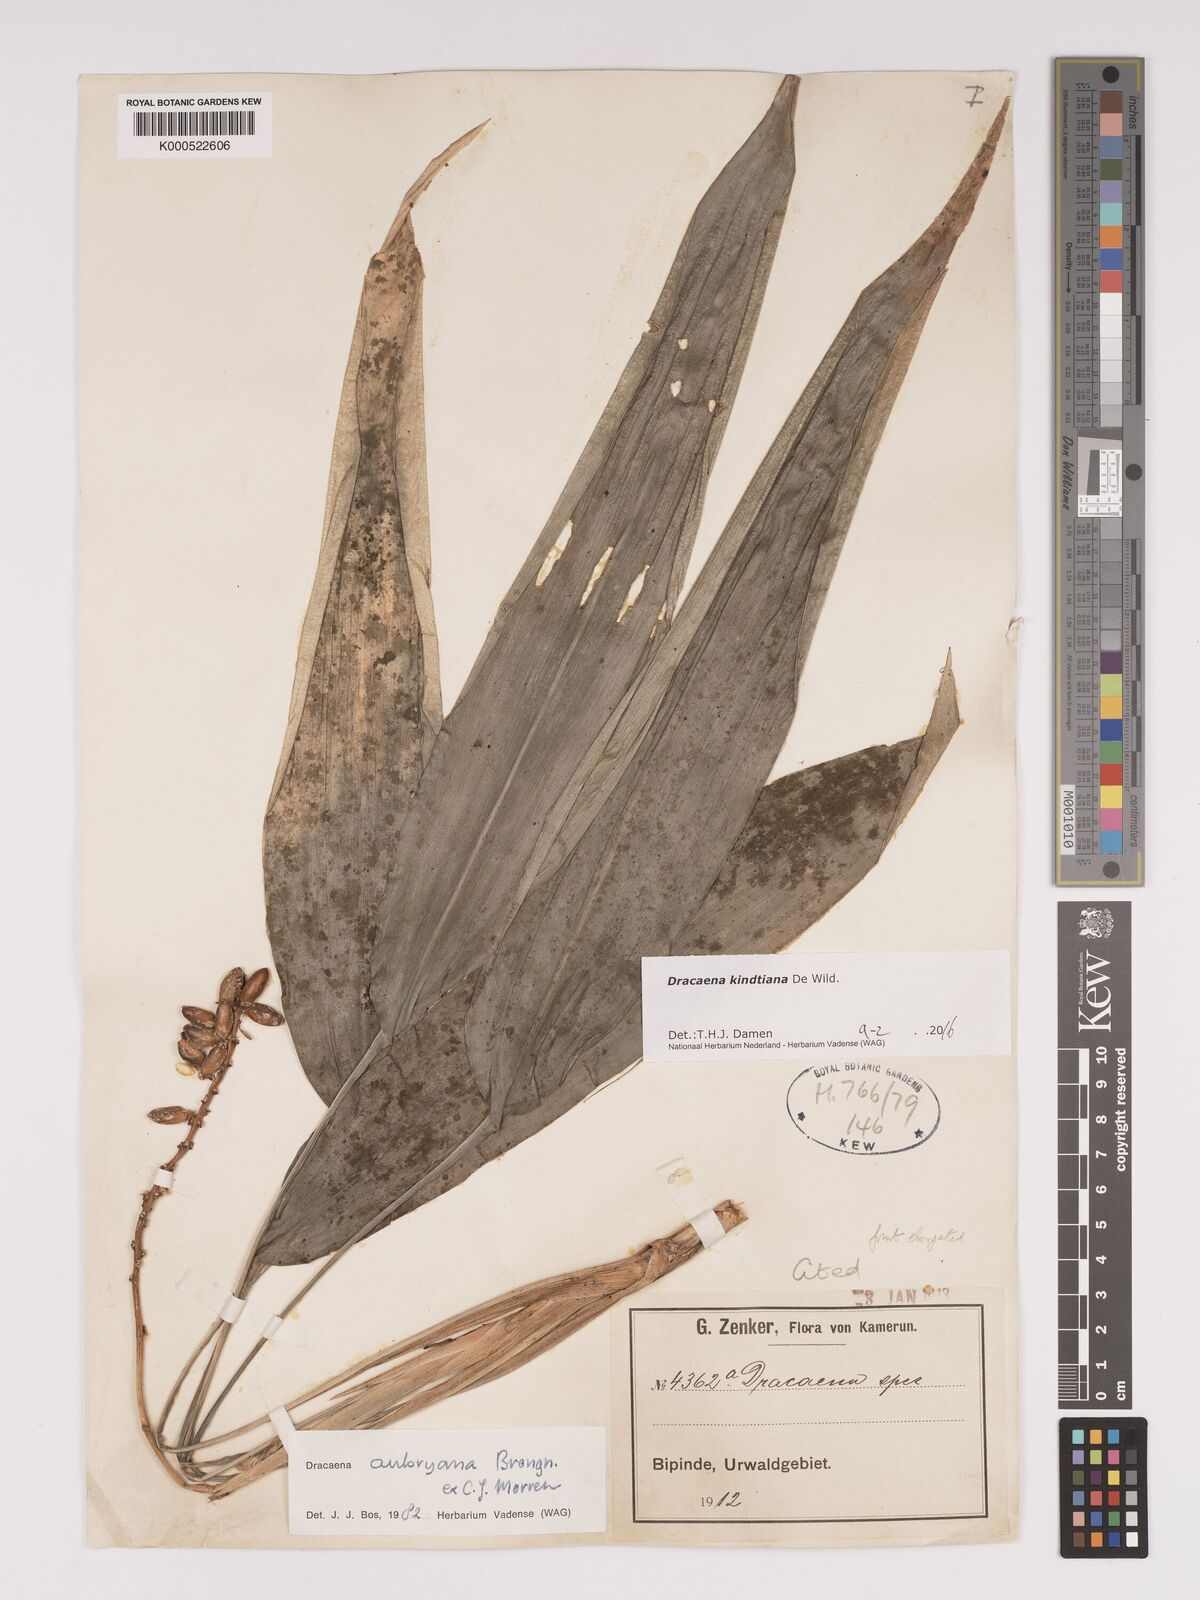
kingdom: Plantae
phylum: Tracheophyta
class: Liliopsida
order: Asparagales
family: Asparagaceae
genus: Dracaena
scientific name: Dracaena kindtiana
